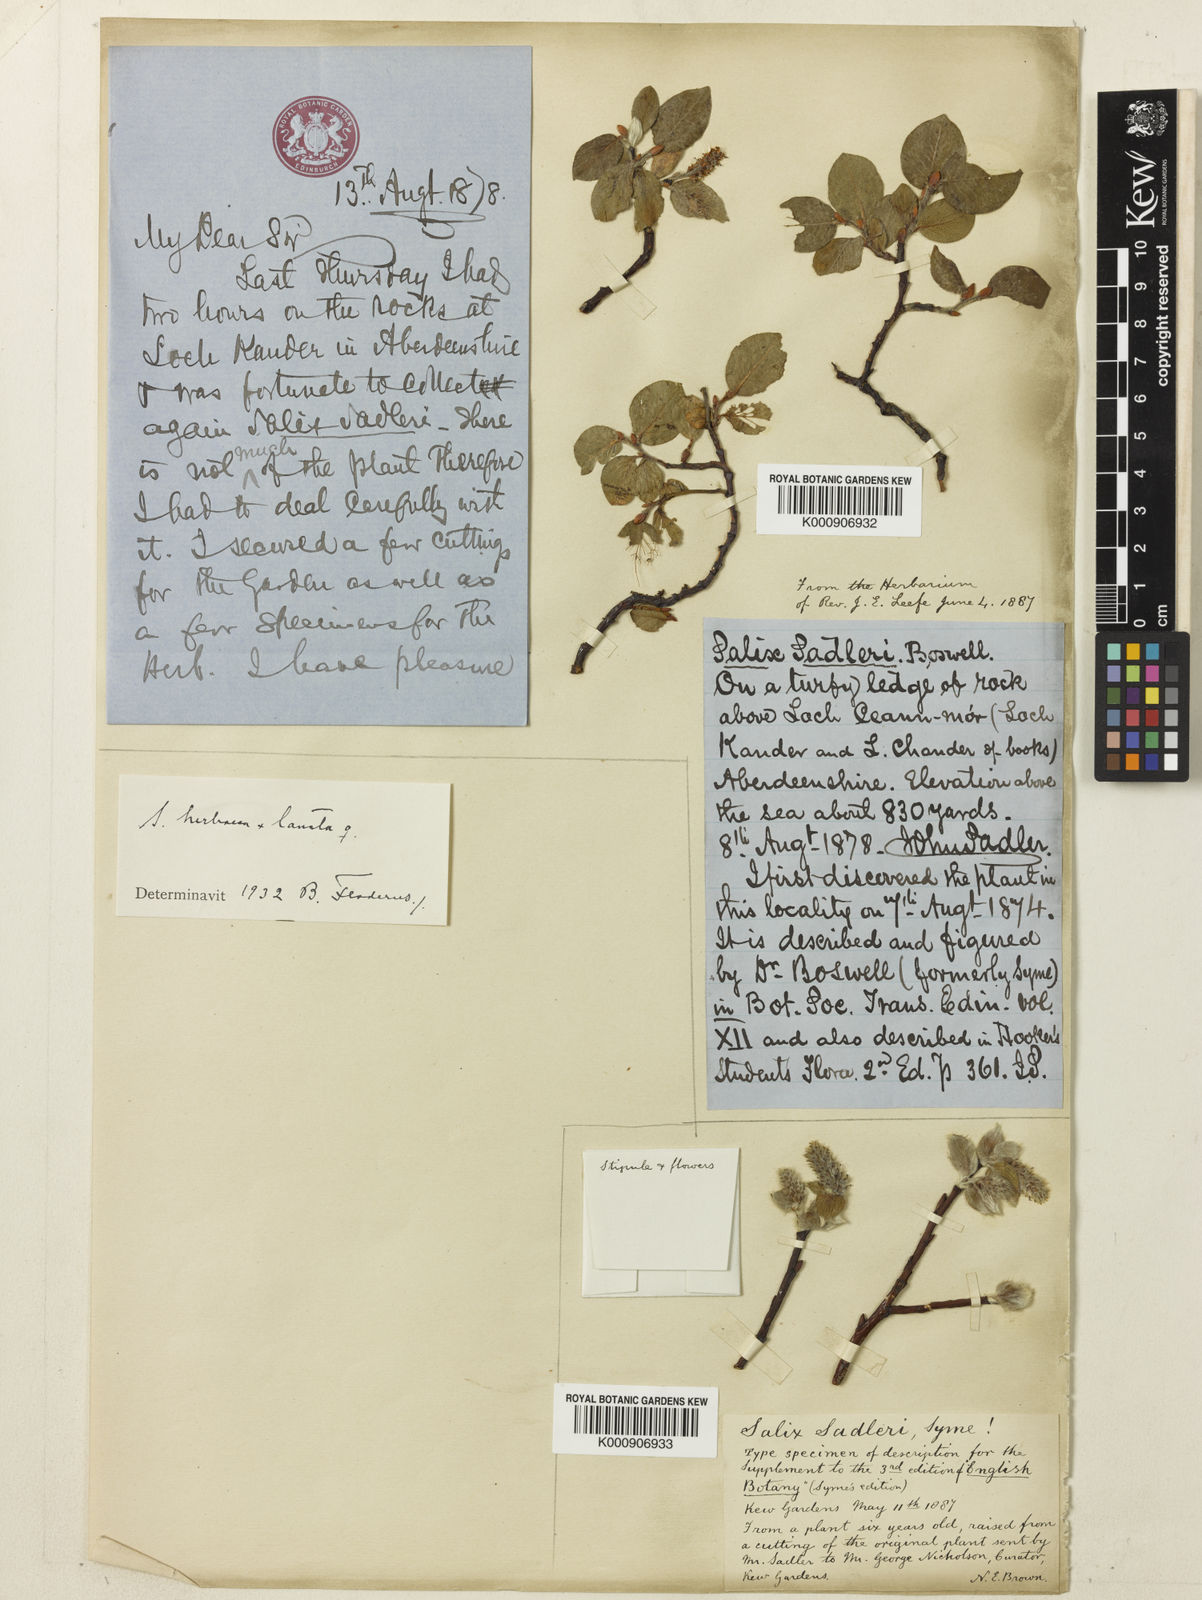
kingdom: Plantae
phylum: Tracheophyta
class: Magnoliopsida
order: Malpighiales
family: Salicaceae
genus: Salix
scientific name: Salix sadleri
